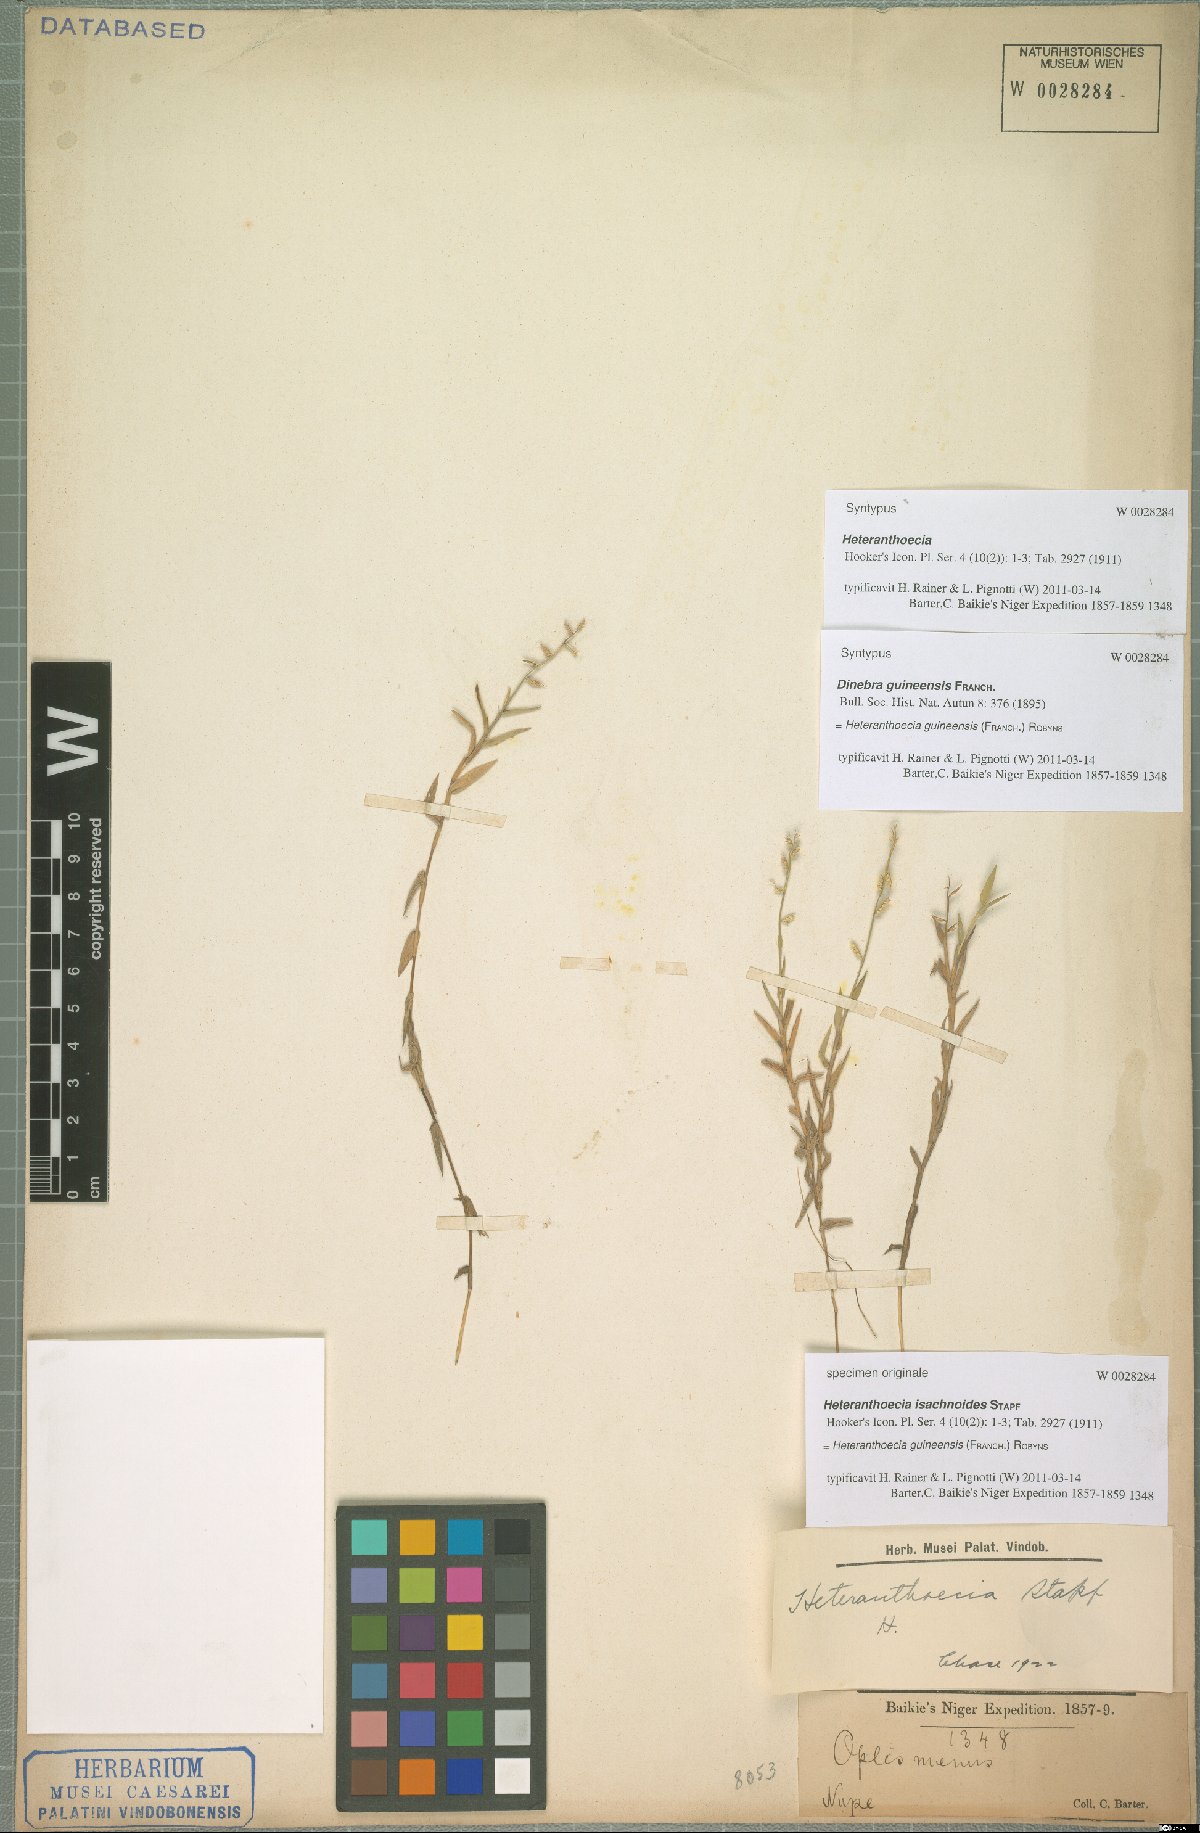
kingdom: Plantae
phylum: Tracheophyta
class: Liliopsida
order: Poales
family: Poaceae
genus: Heteranthoecia
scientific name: Heteranthoecia guineensis
